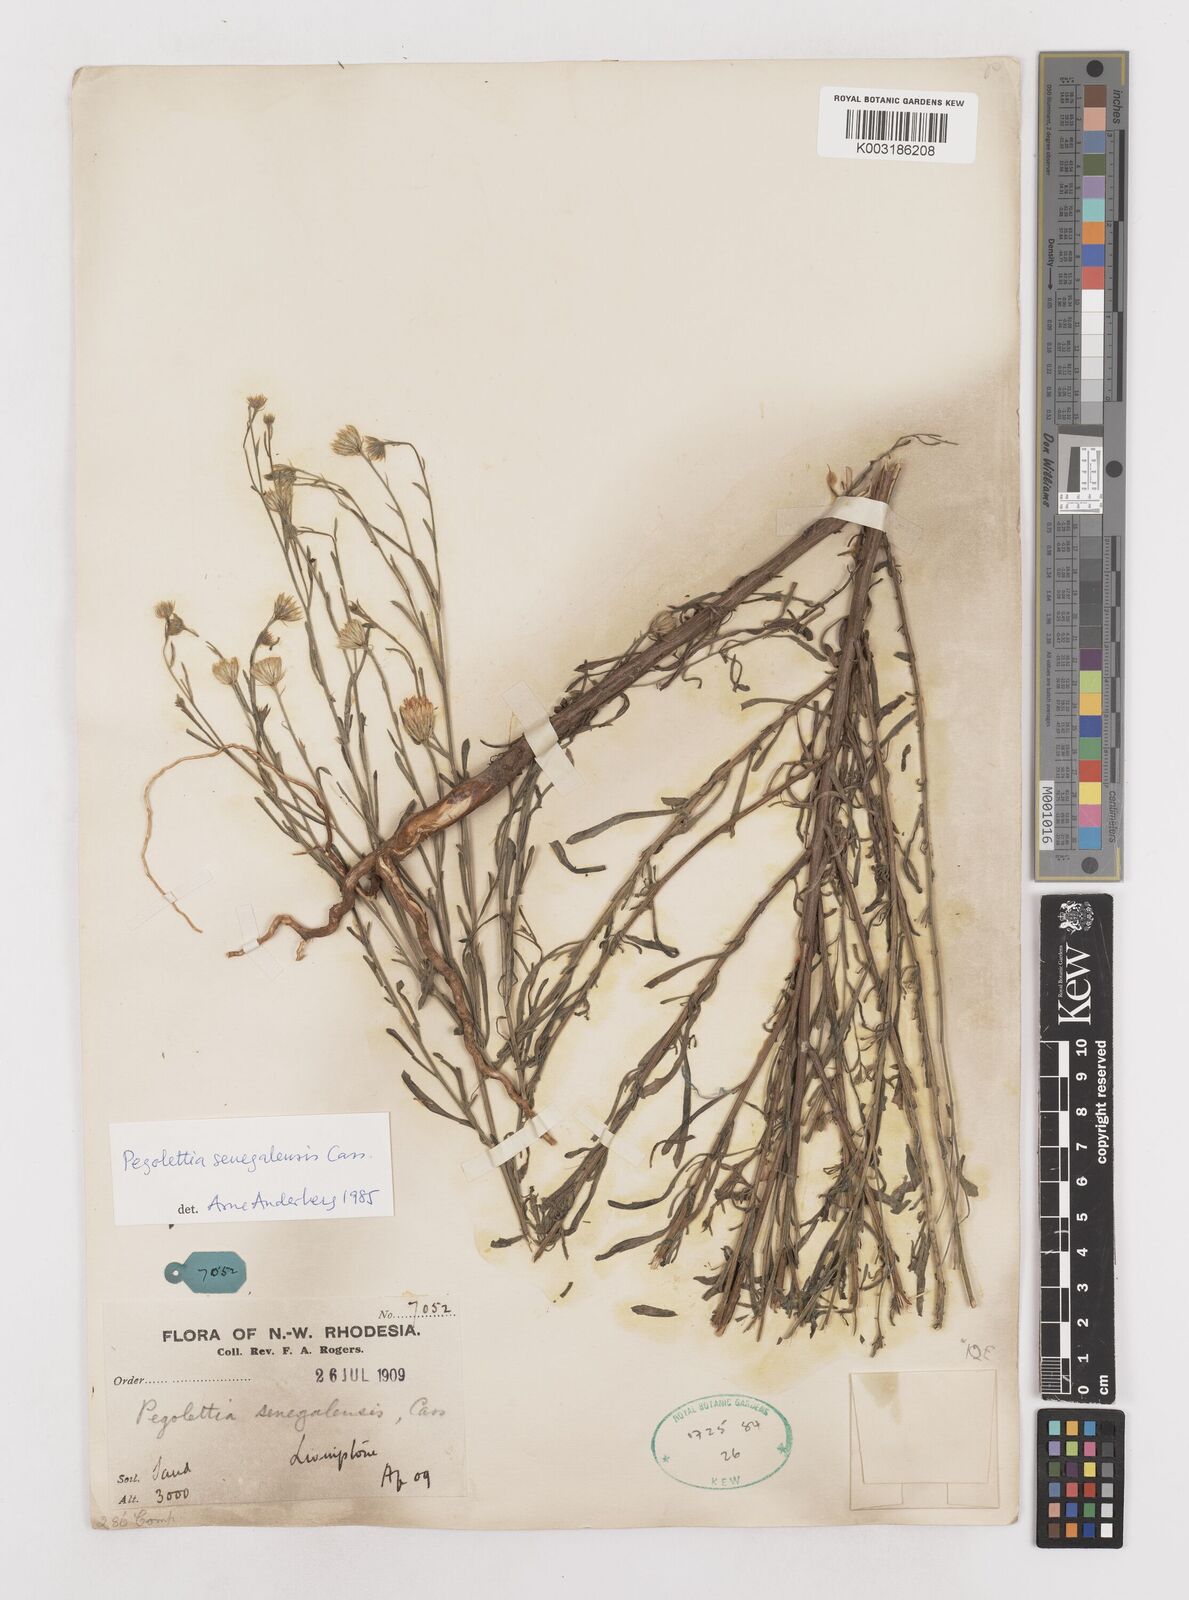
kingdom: Plantae
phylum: Tracheophyta
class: Magnoliopsida
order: Asterales
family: Asteraceae
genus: Pegolettia
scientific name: Pegolettia senegalensis
